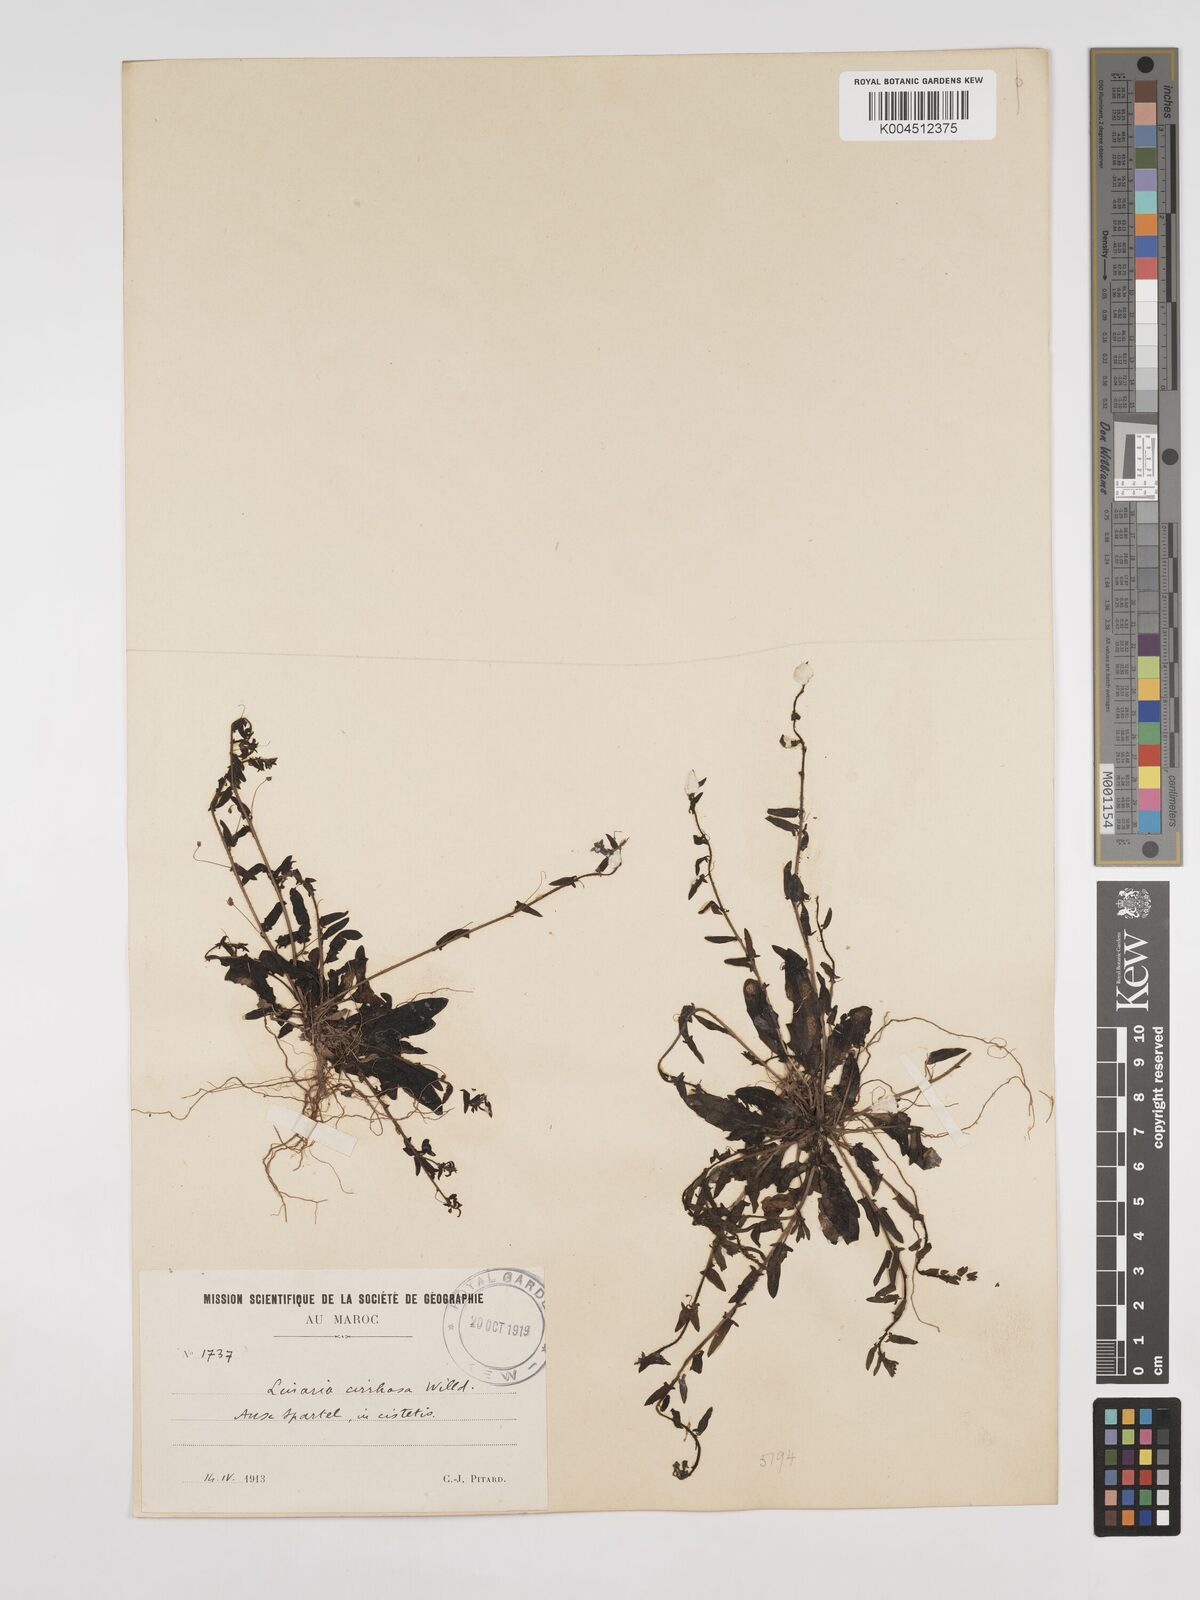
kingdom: Plantae
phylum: Tracheophyta
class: Magnoliopsida
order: Lamiales
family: Plantaginaceae
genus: Kickxia
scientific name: Kickxia cirrhosa
